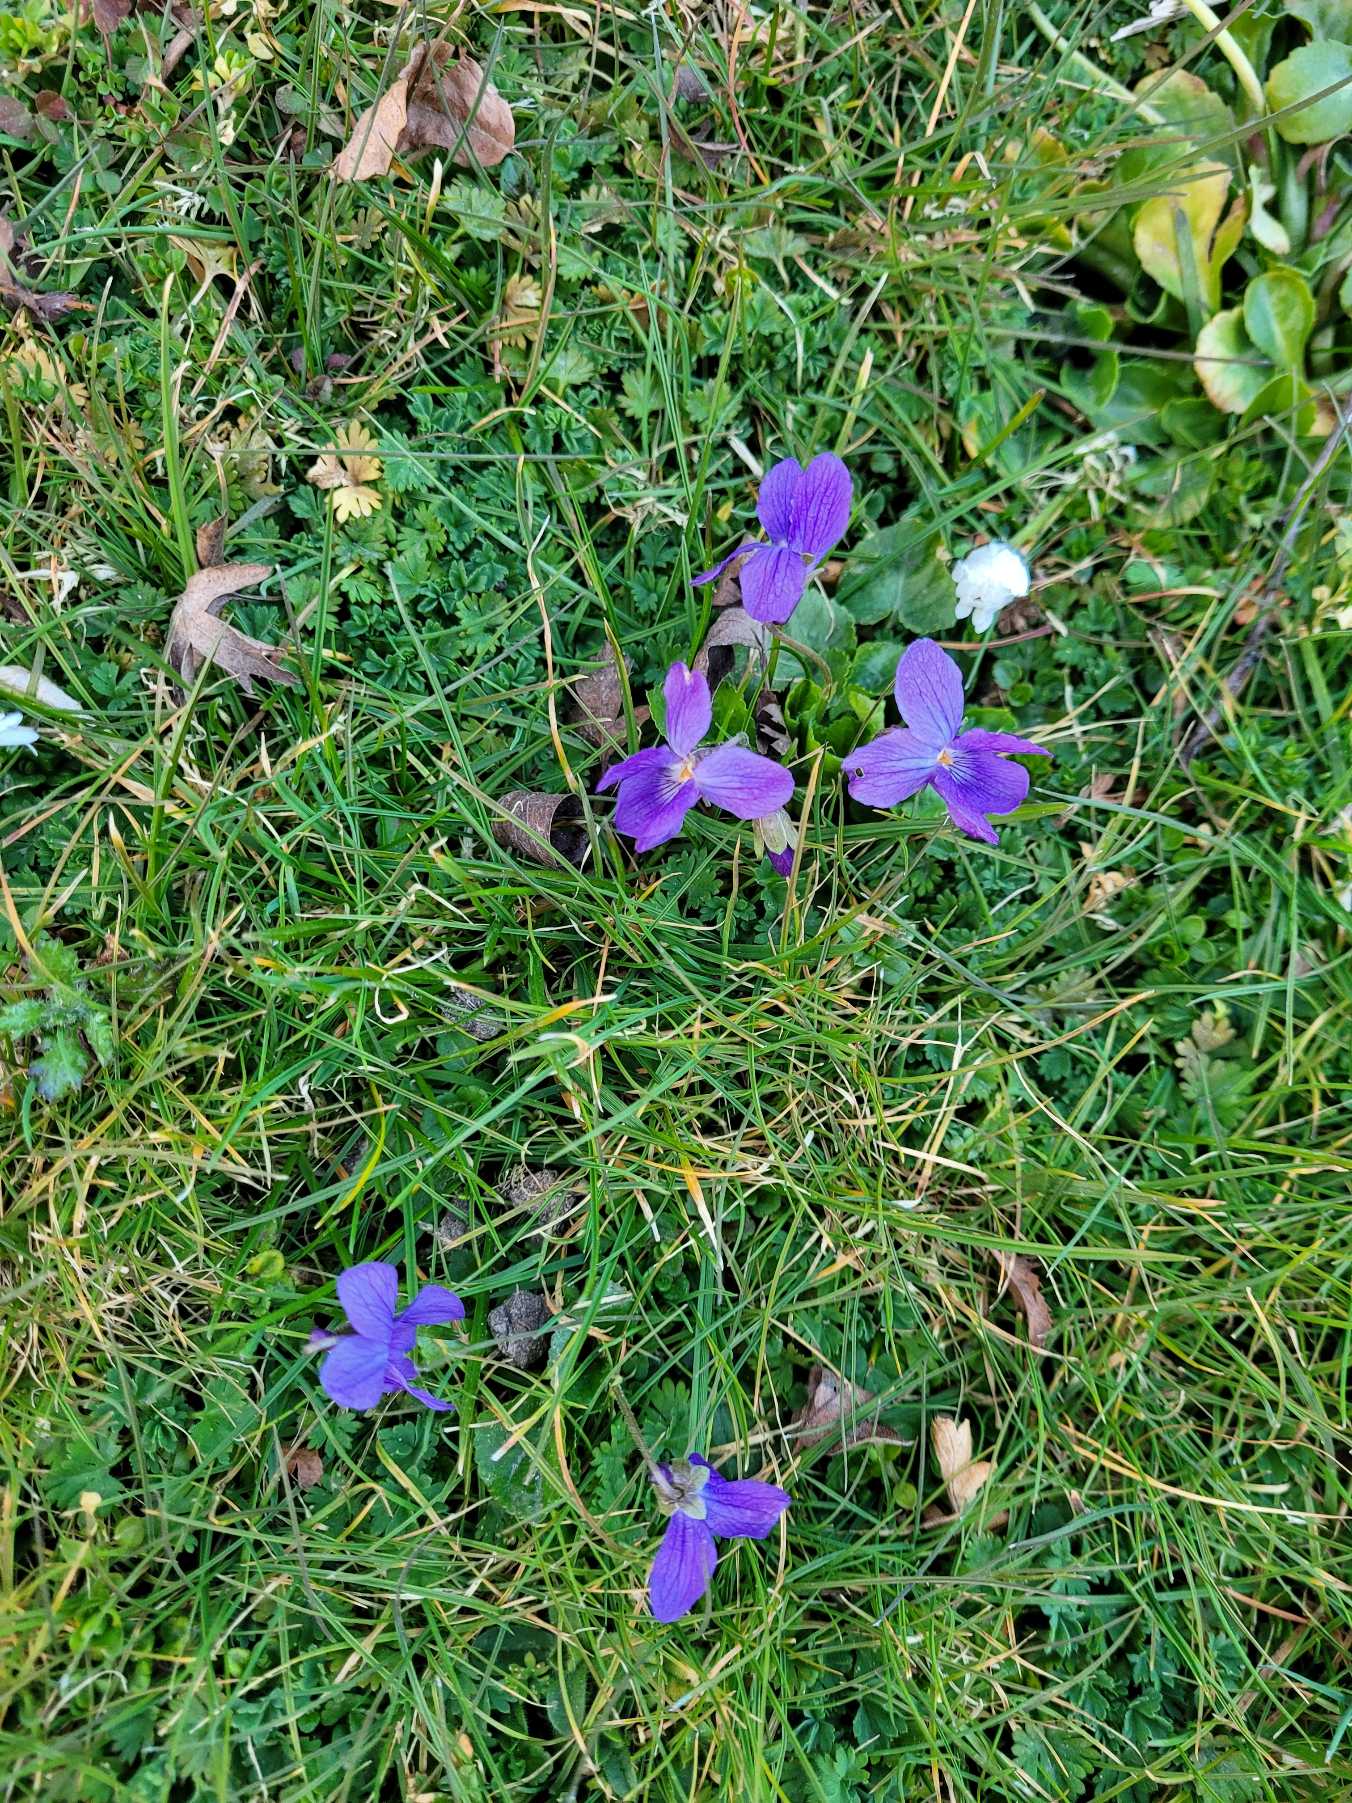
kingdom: Plantae
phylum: Tracheophyta
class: Magnoliopsida
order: Malpighiales
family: Violaceae
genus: Viola
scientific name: Viola odorata
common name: Marts-viol
